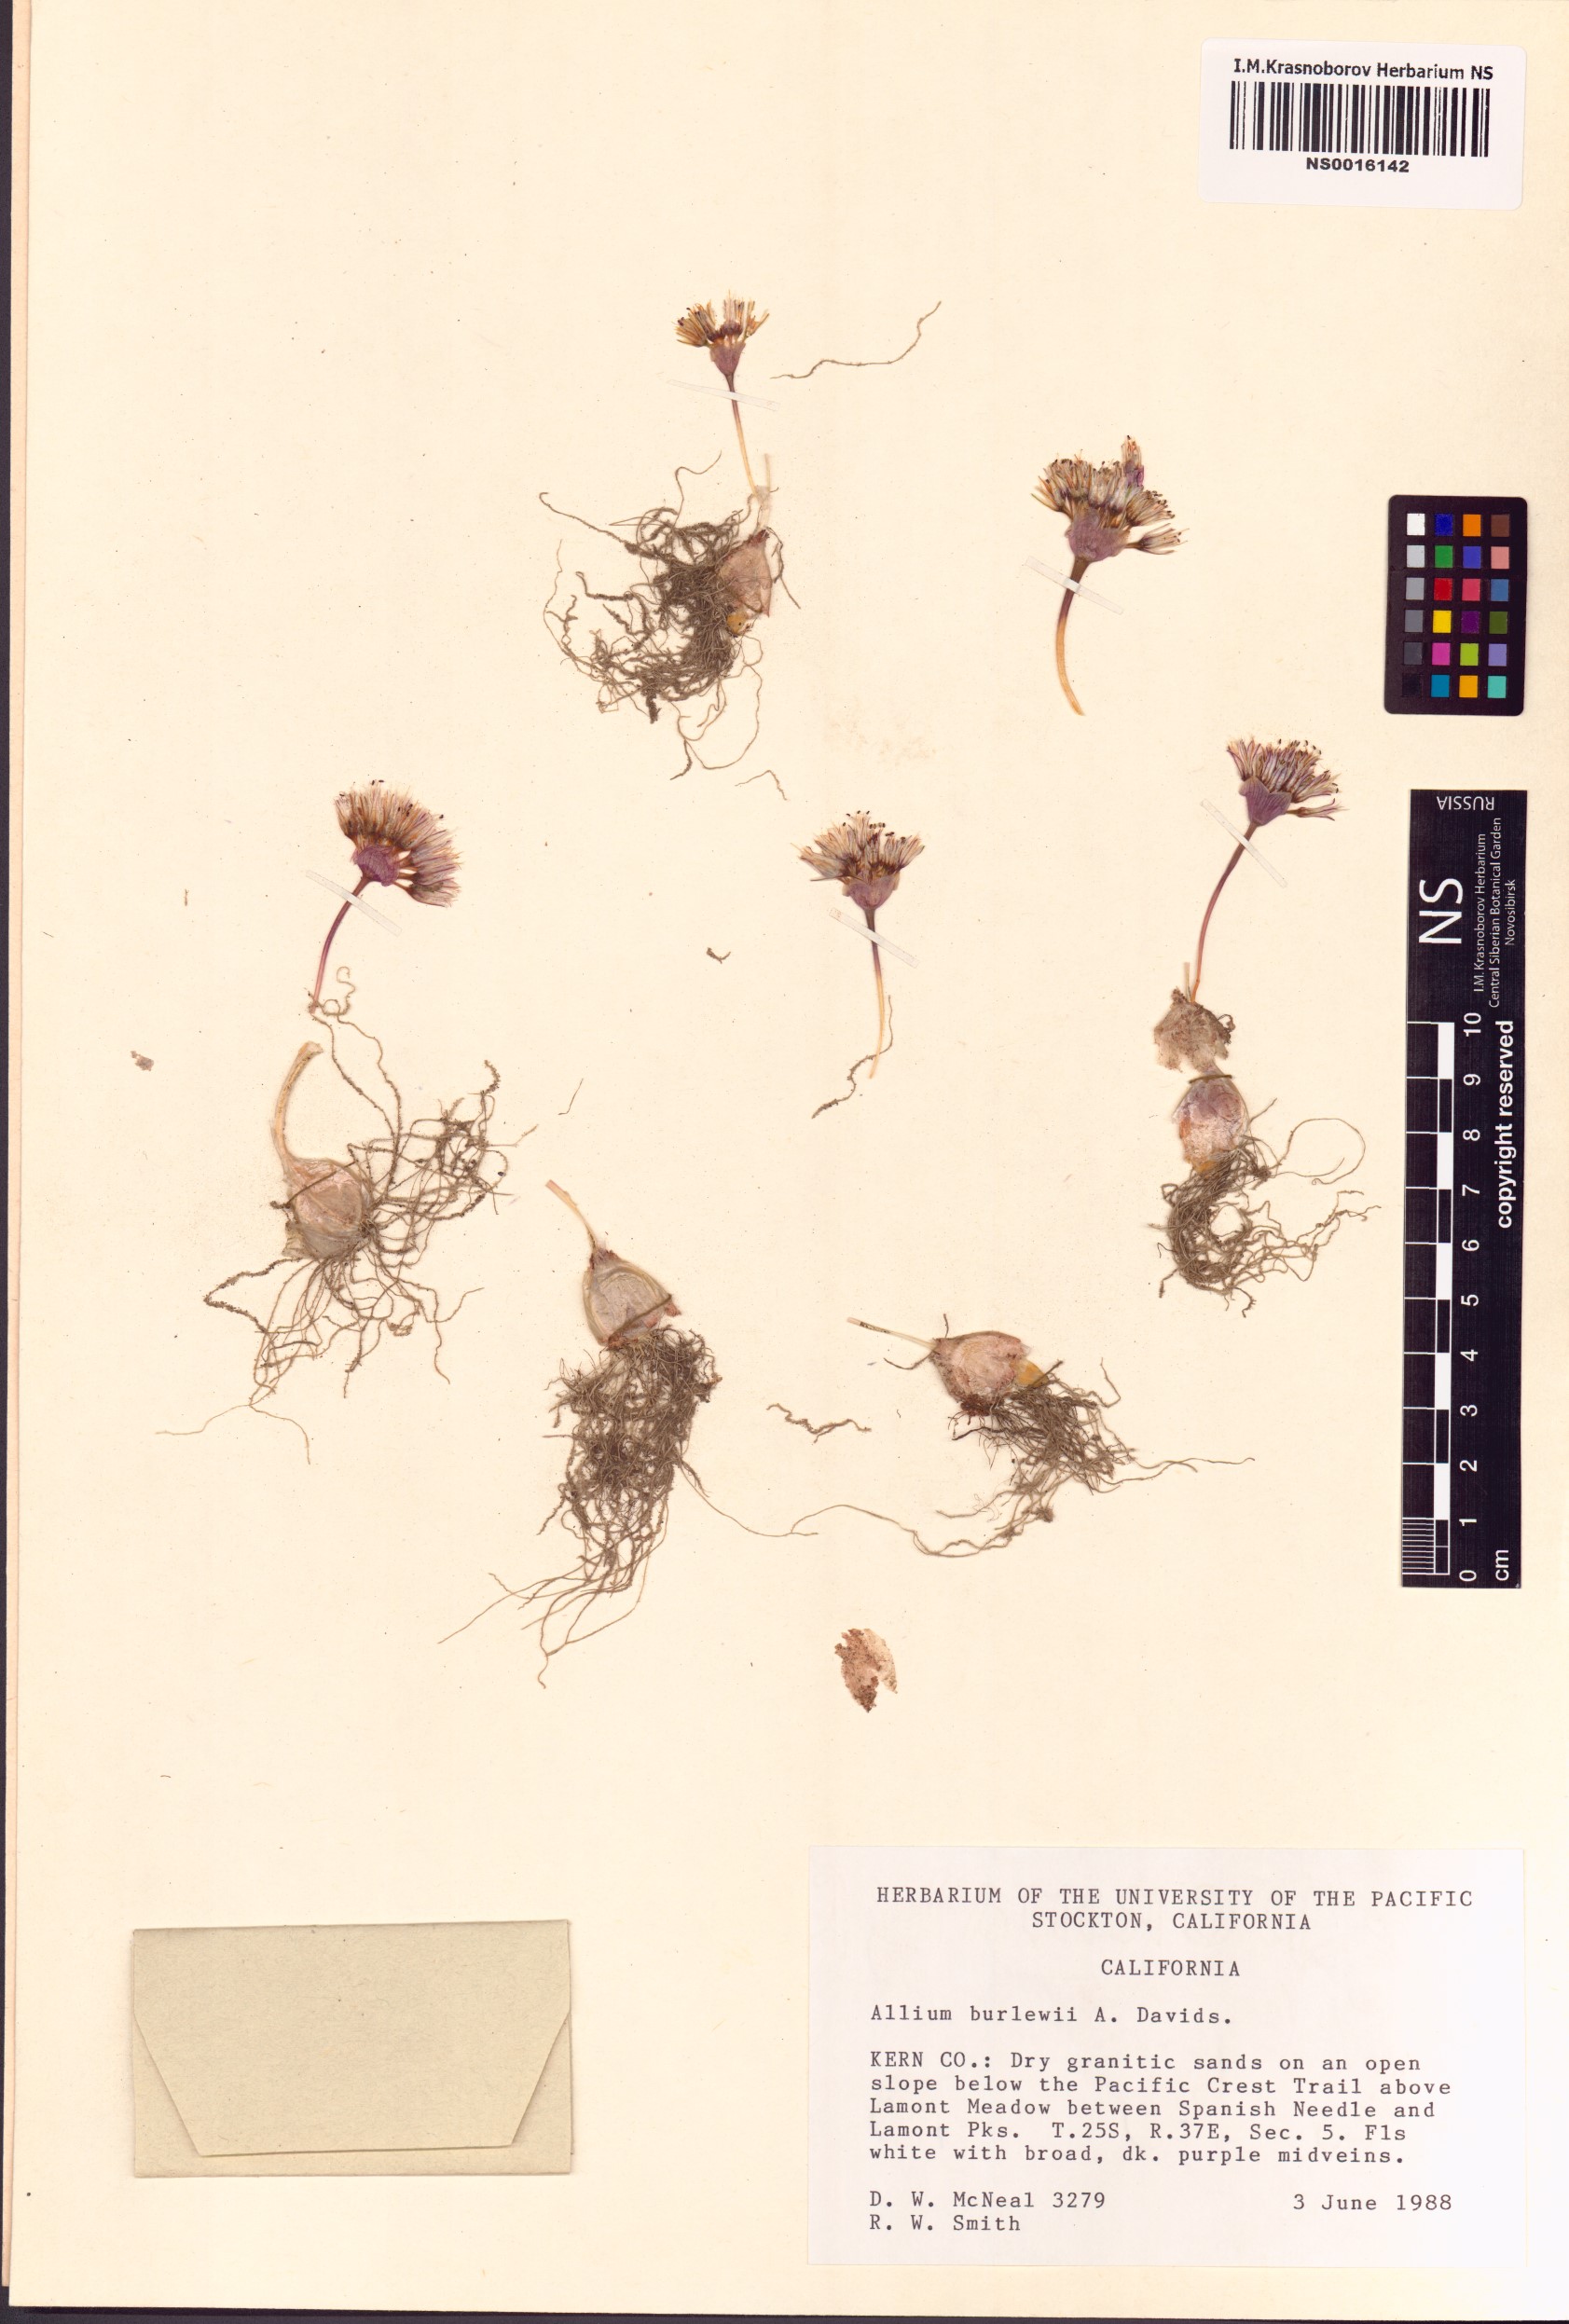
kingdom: Plantae
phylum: Tracheophyta
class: Liliopsida
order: Asparagales
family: Amaryllidaceae
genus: Allium
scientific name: Allium burlewii
